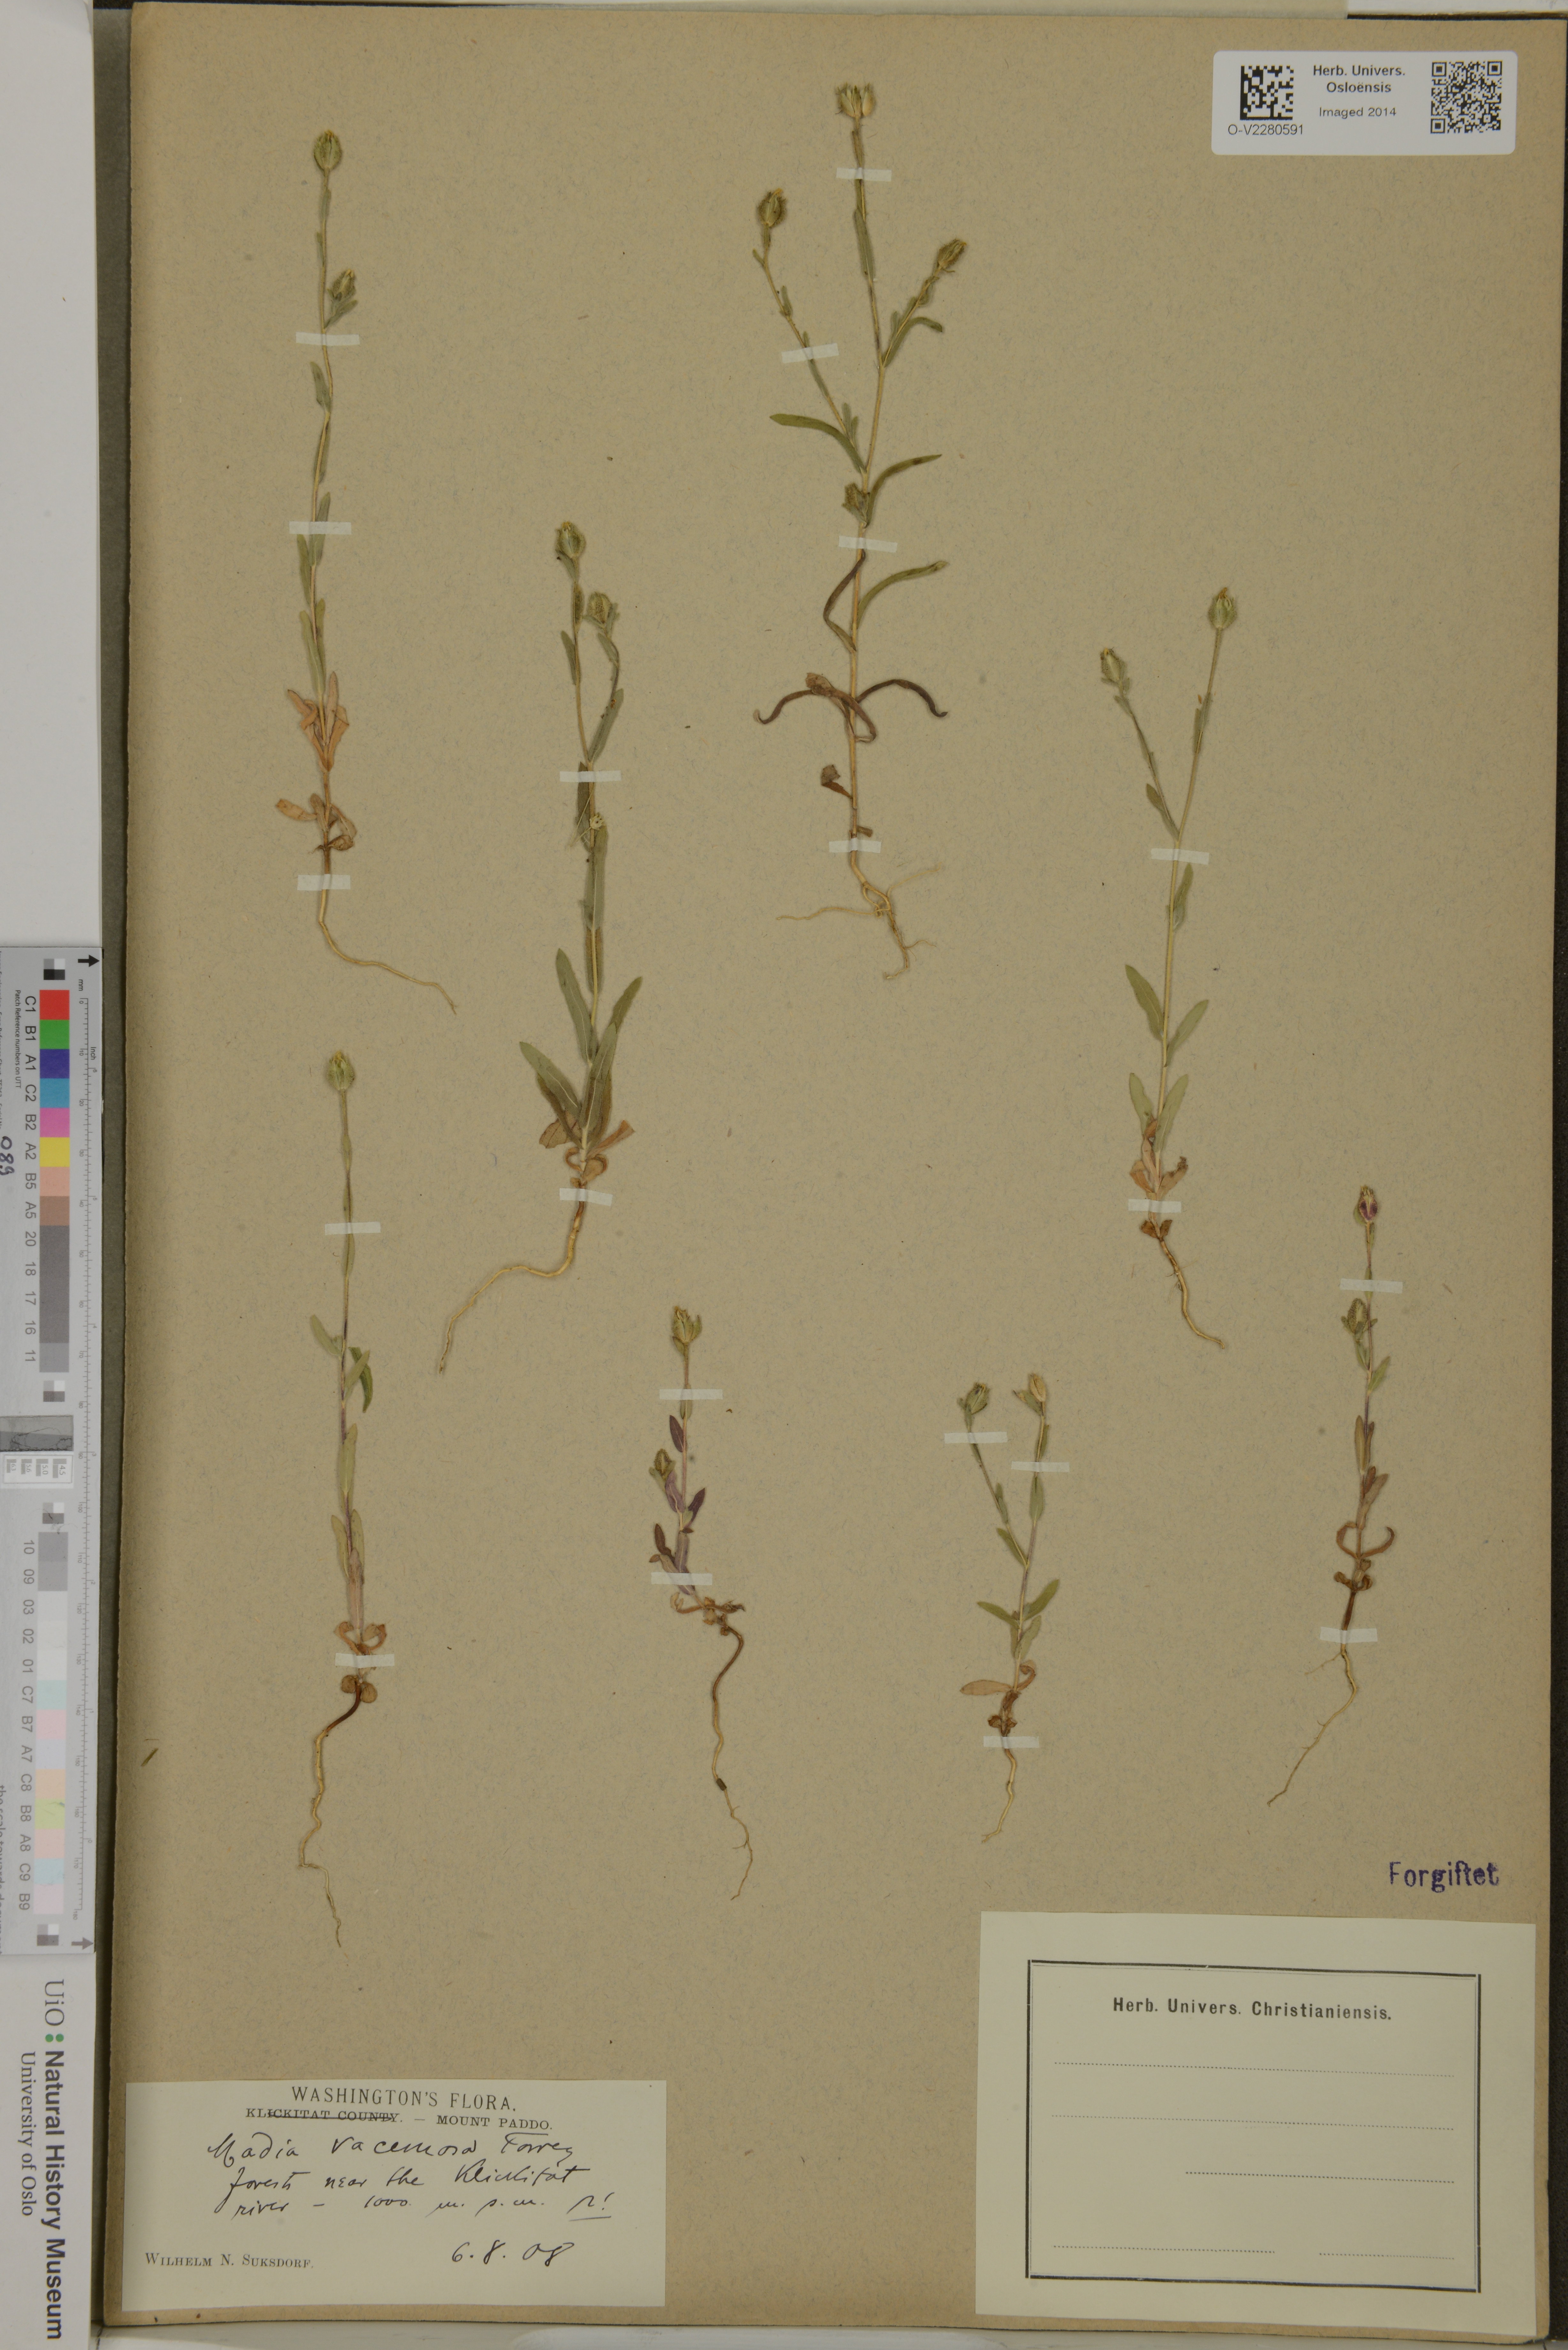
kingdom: Plantae
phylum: Tracheophyta
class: Magnoliopsida
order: Asterales
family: Asteraceae
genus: Madia
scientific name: Madia sativa
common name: Coast tarweed
